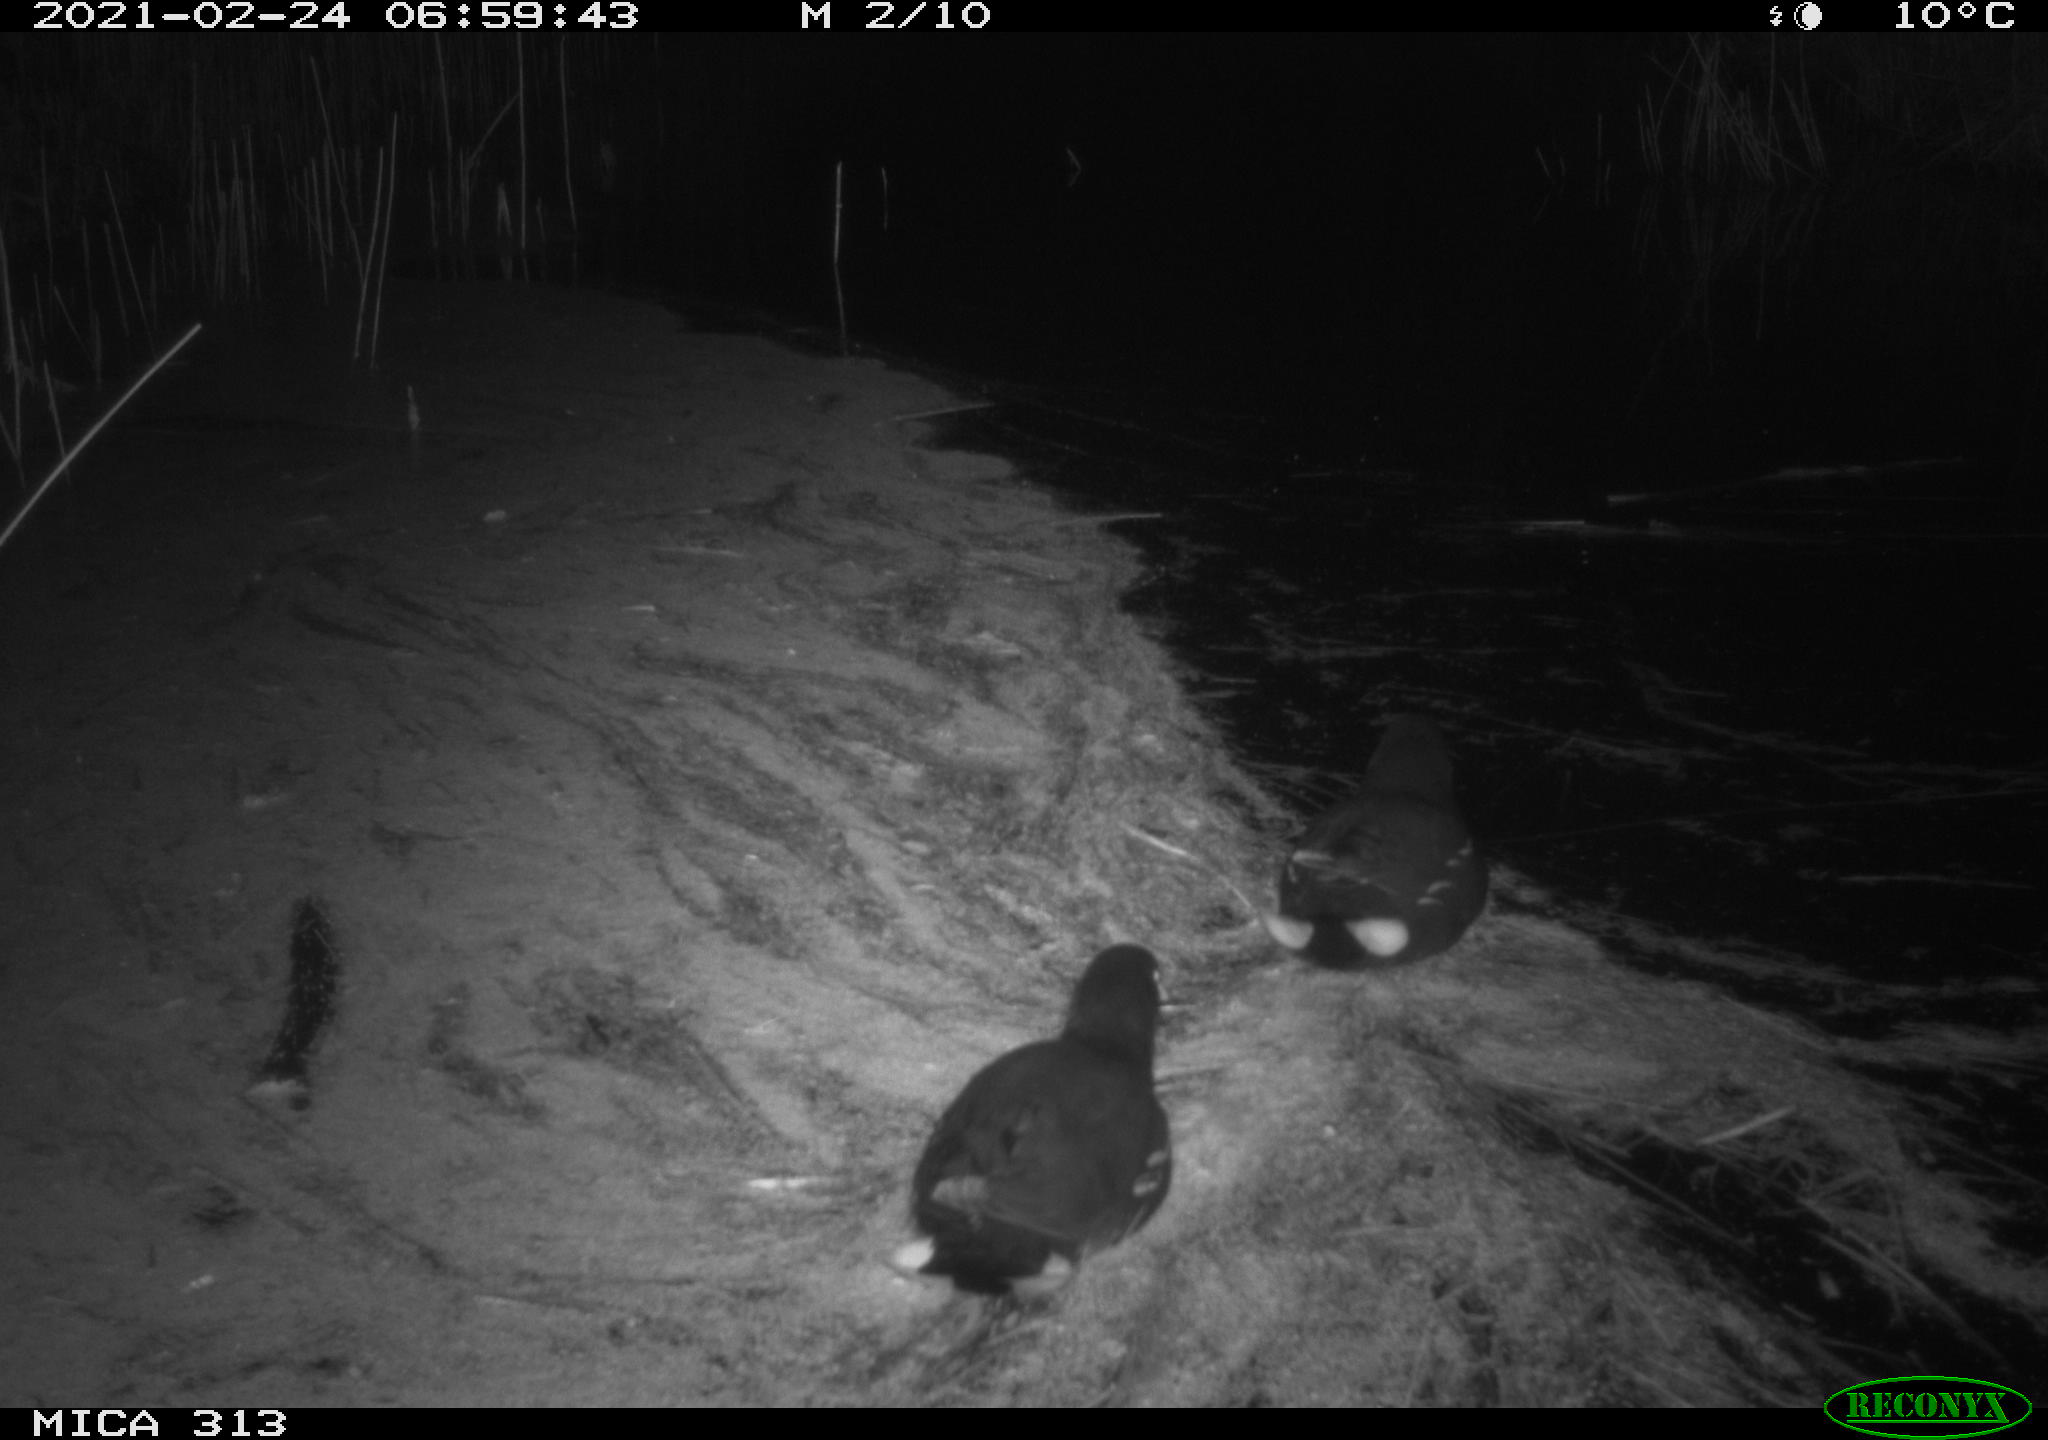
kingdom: Animalia
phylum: Chordata
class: Aves
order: Gruiformes
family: Rallidae
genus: Gallinula
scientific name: Gallinula chloropus
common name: Common moorhen
